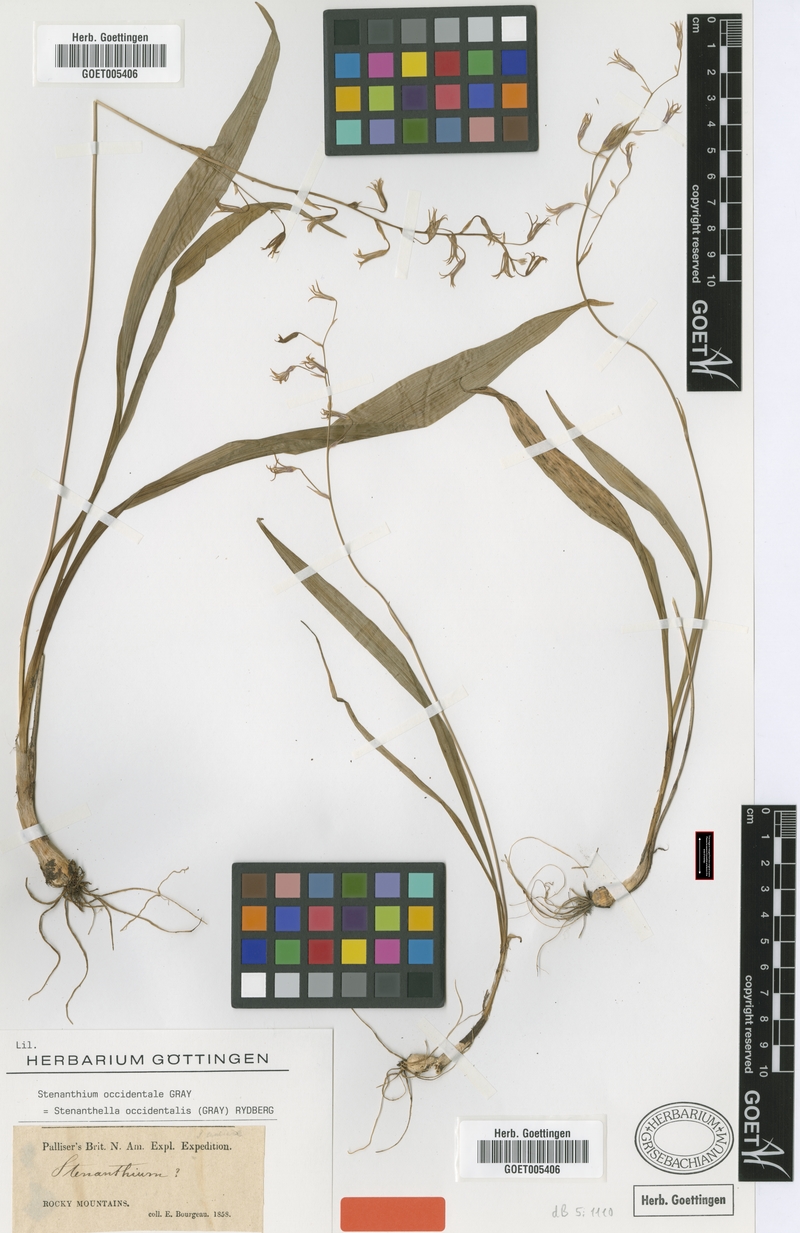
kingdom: Plantae
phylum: Tracheophyta
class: Liliopsida
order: Liliales
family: Melanthiaceae
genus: Anticlea
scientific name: Anticlea occidentalis
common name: Bronze-bells
